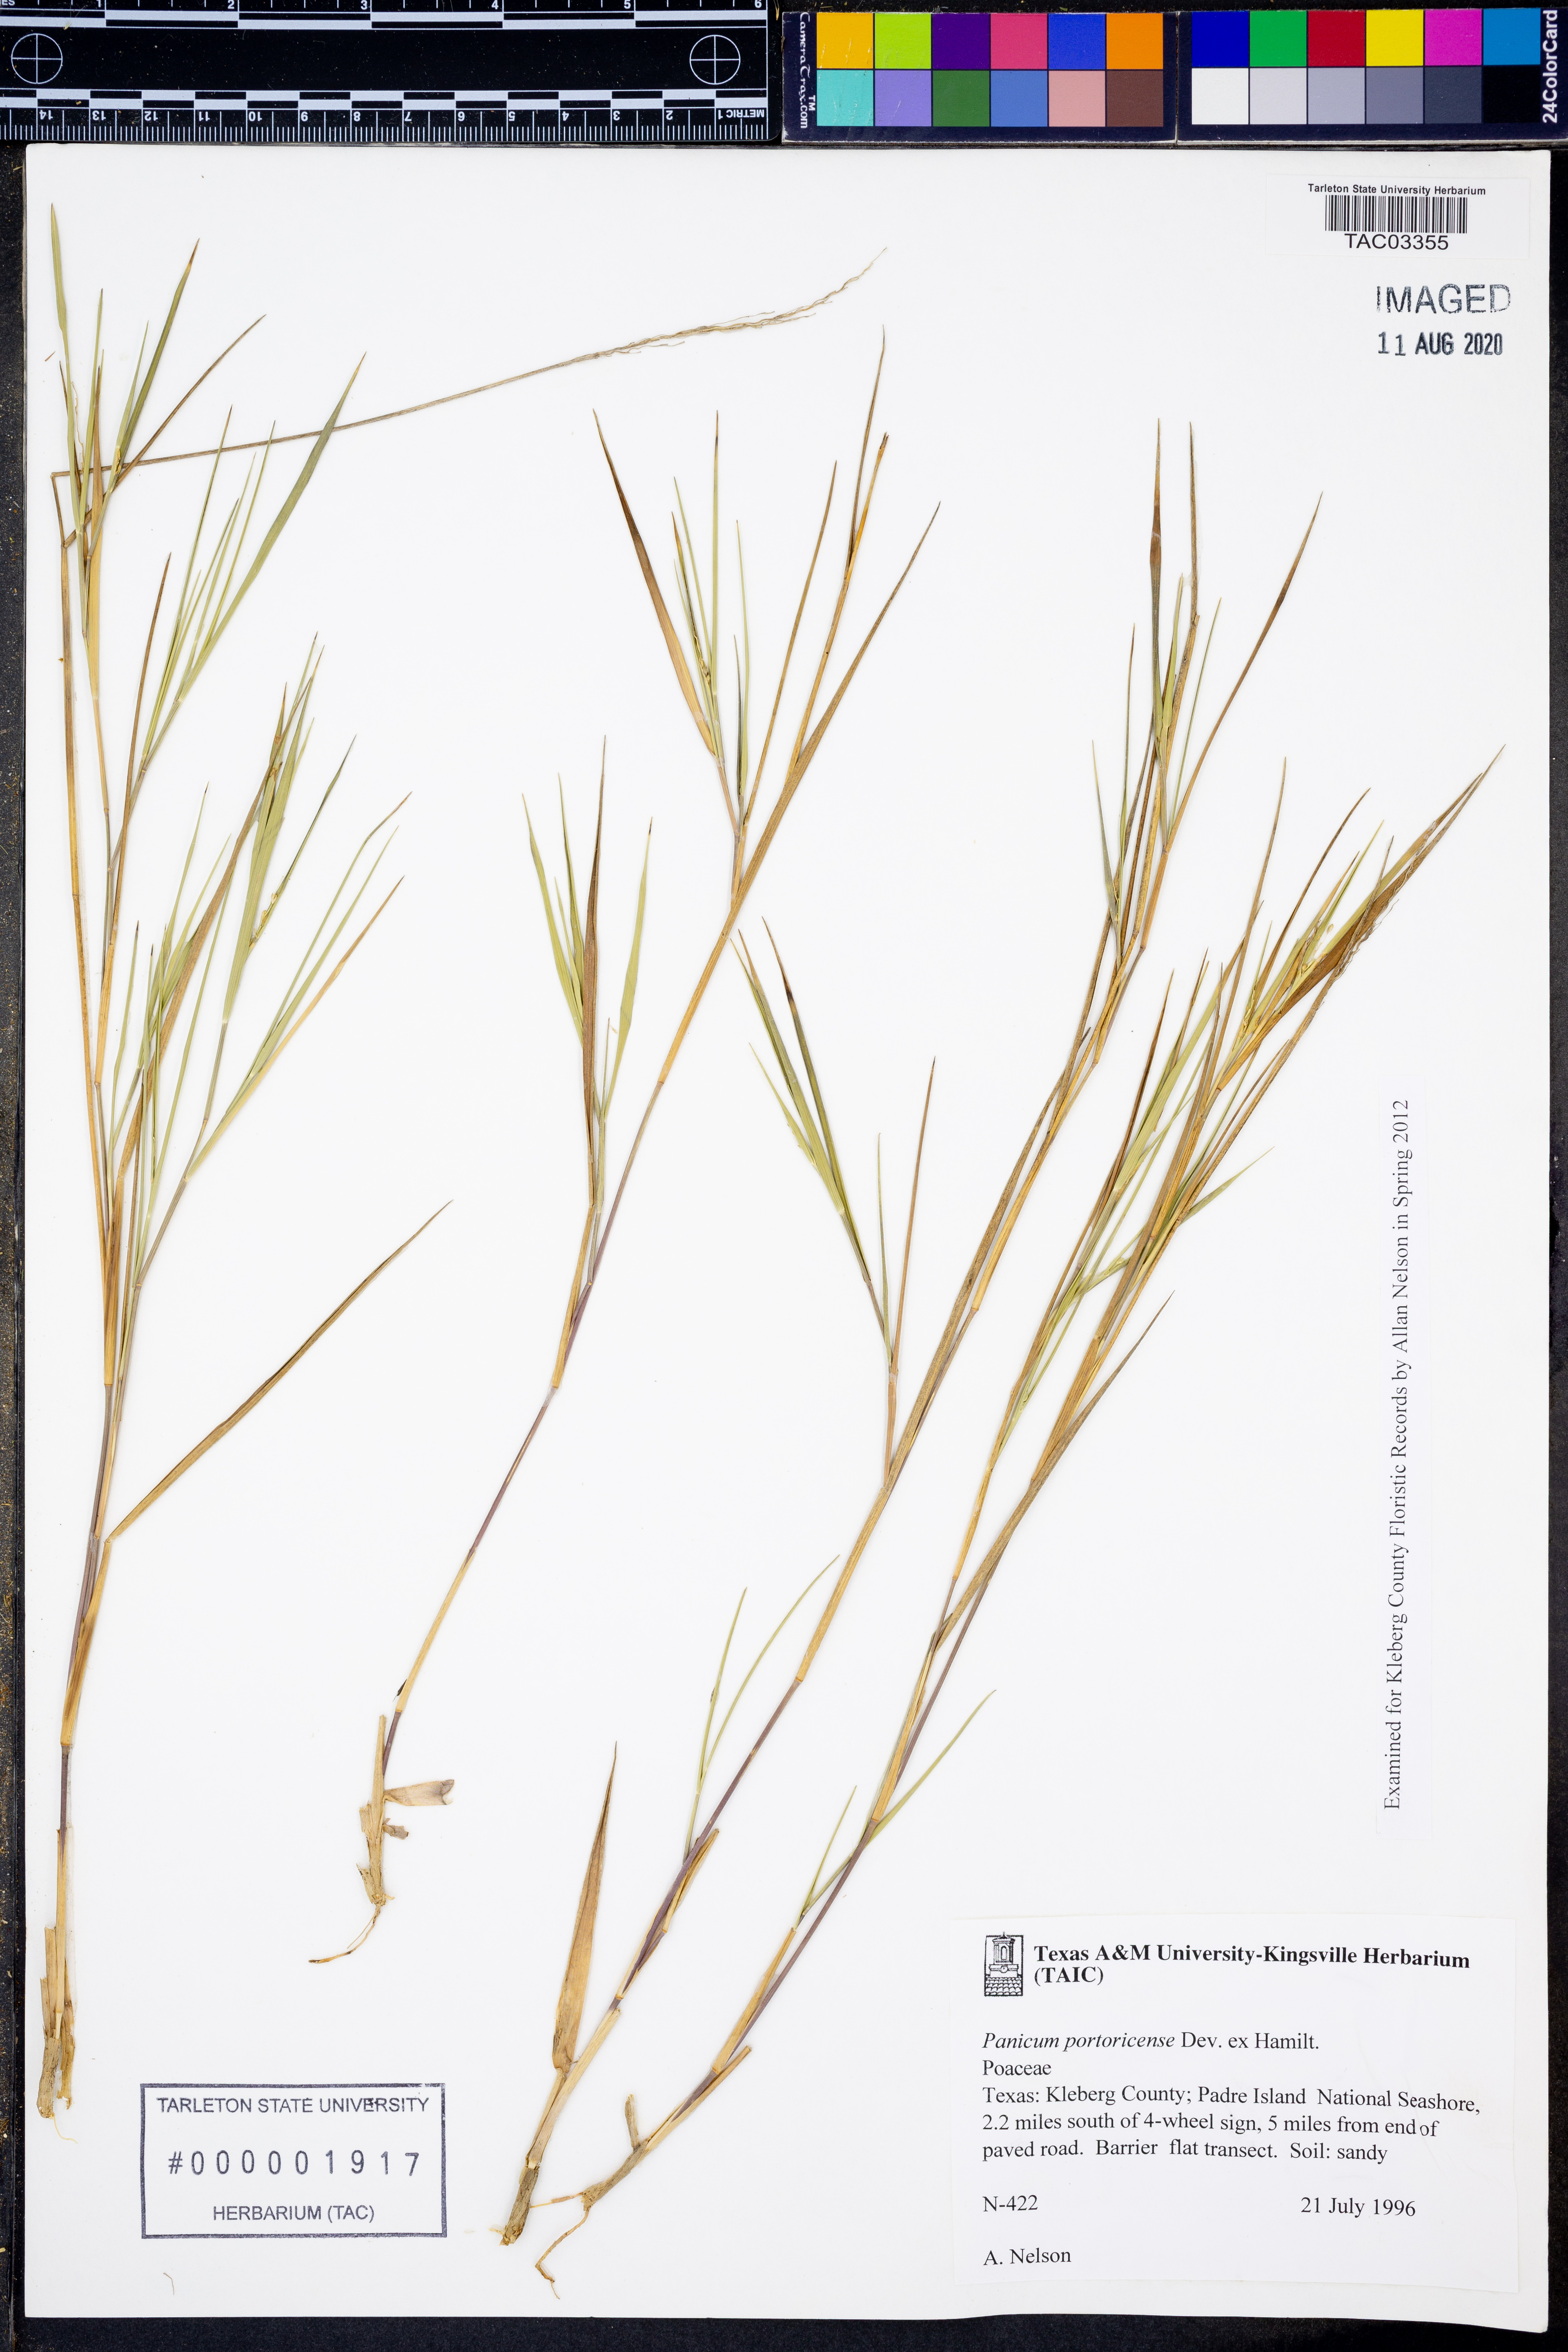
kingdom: Plantae
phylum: Tracheophyta
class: Liliopsida
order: Poales
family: Poaceae
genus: Dichanthelium
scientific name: Dichanthelium portoricense
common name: American panicgrass
